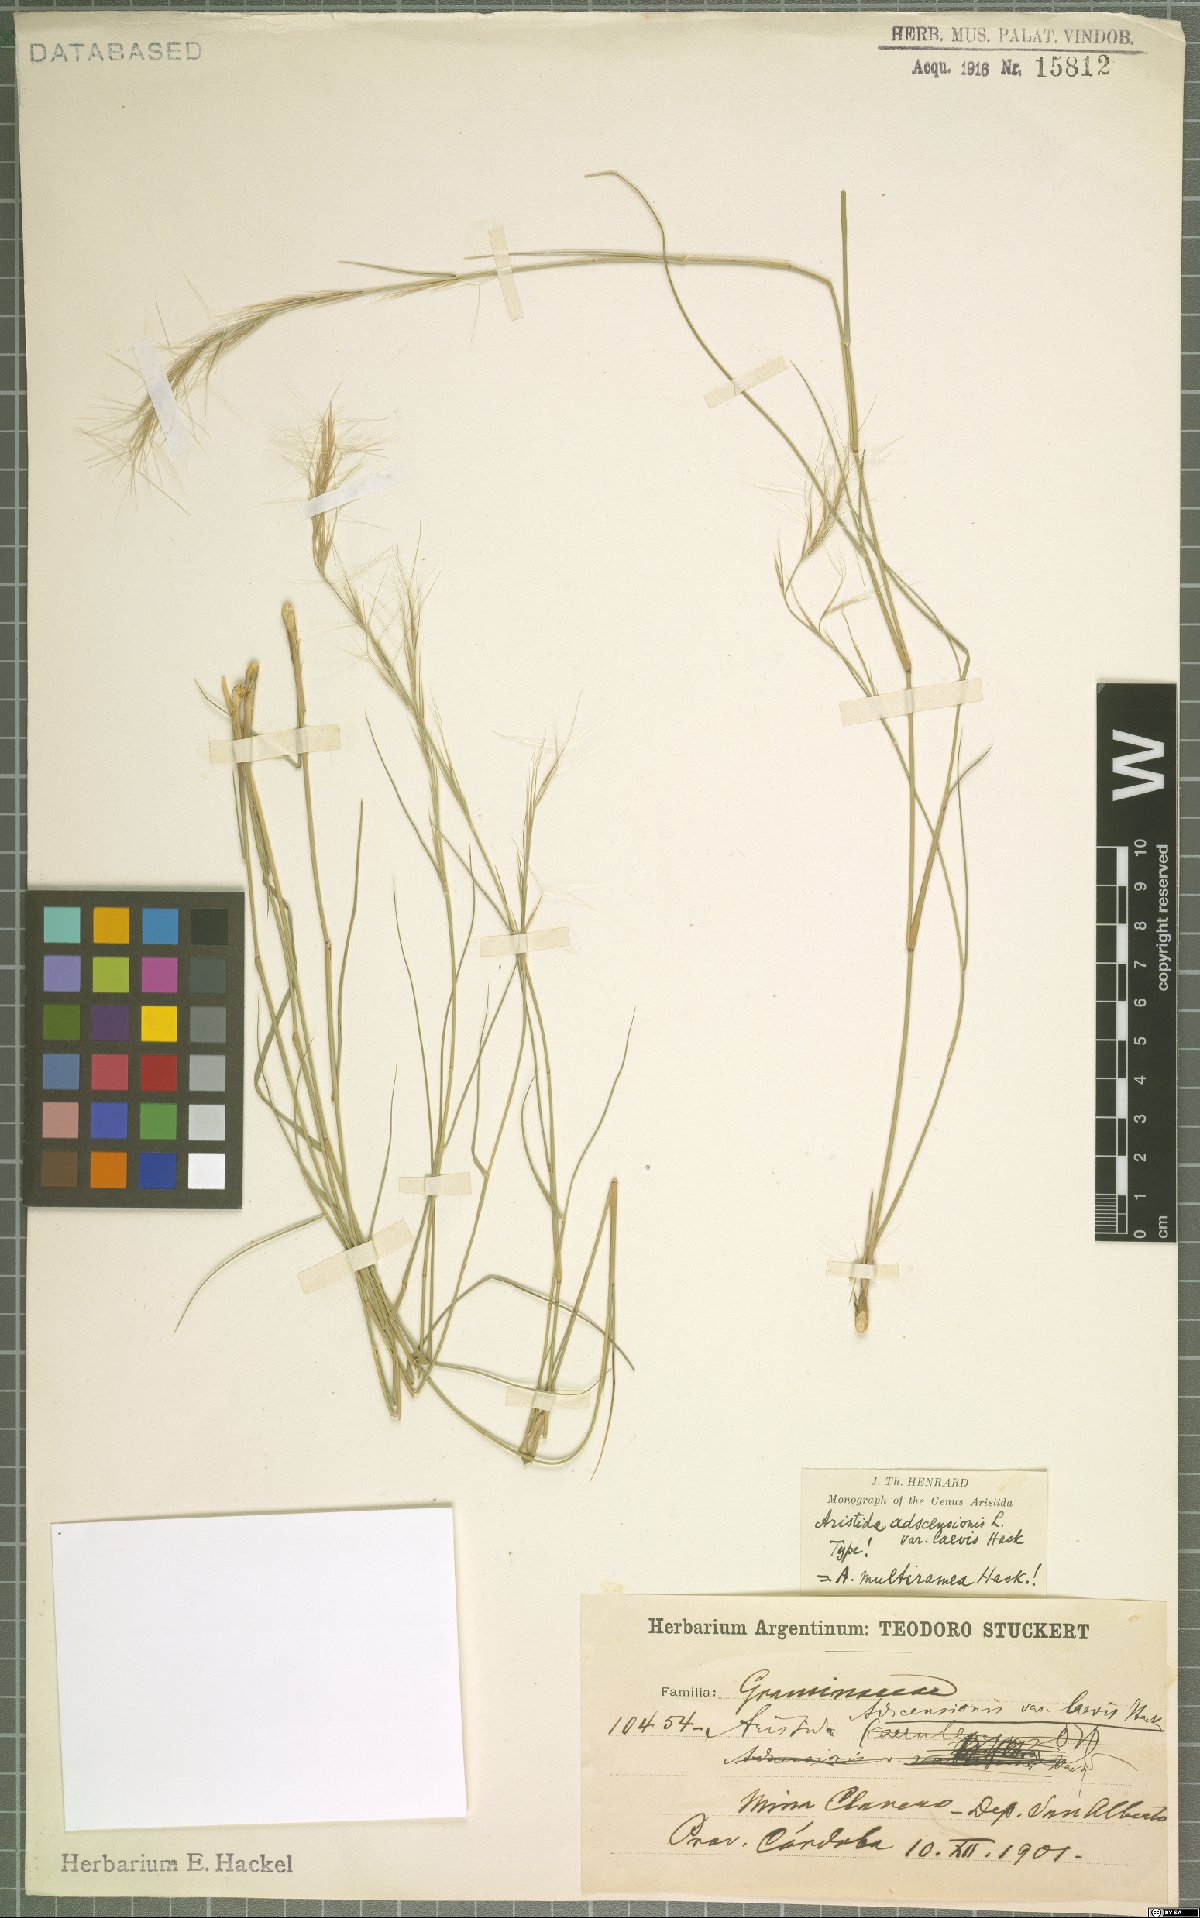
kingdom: Plantae
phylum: Tracheophyta
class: Liliopsida
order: Poales
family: Poaceae
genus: Aristida
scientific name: Aristida multiramea
